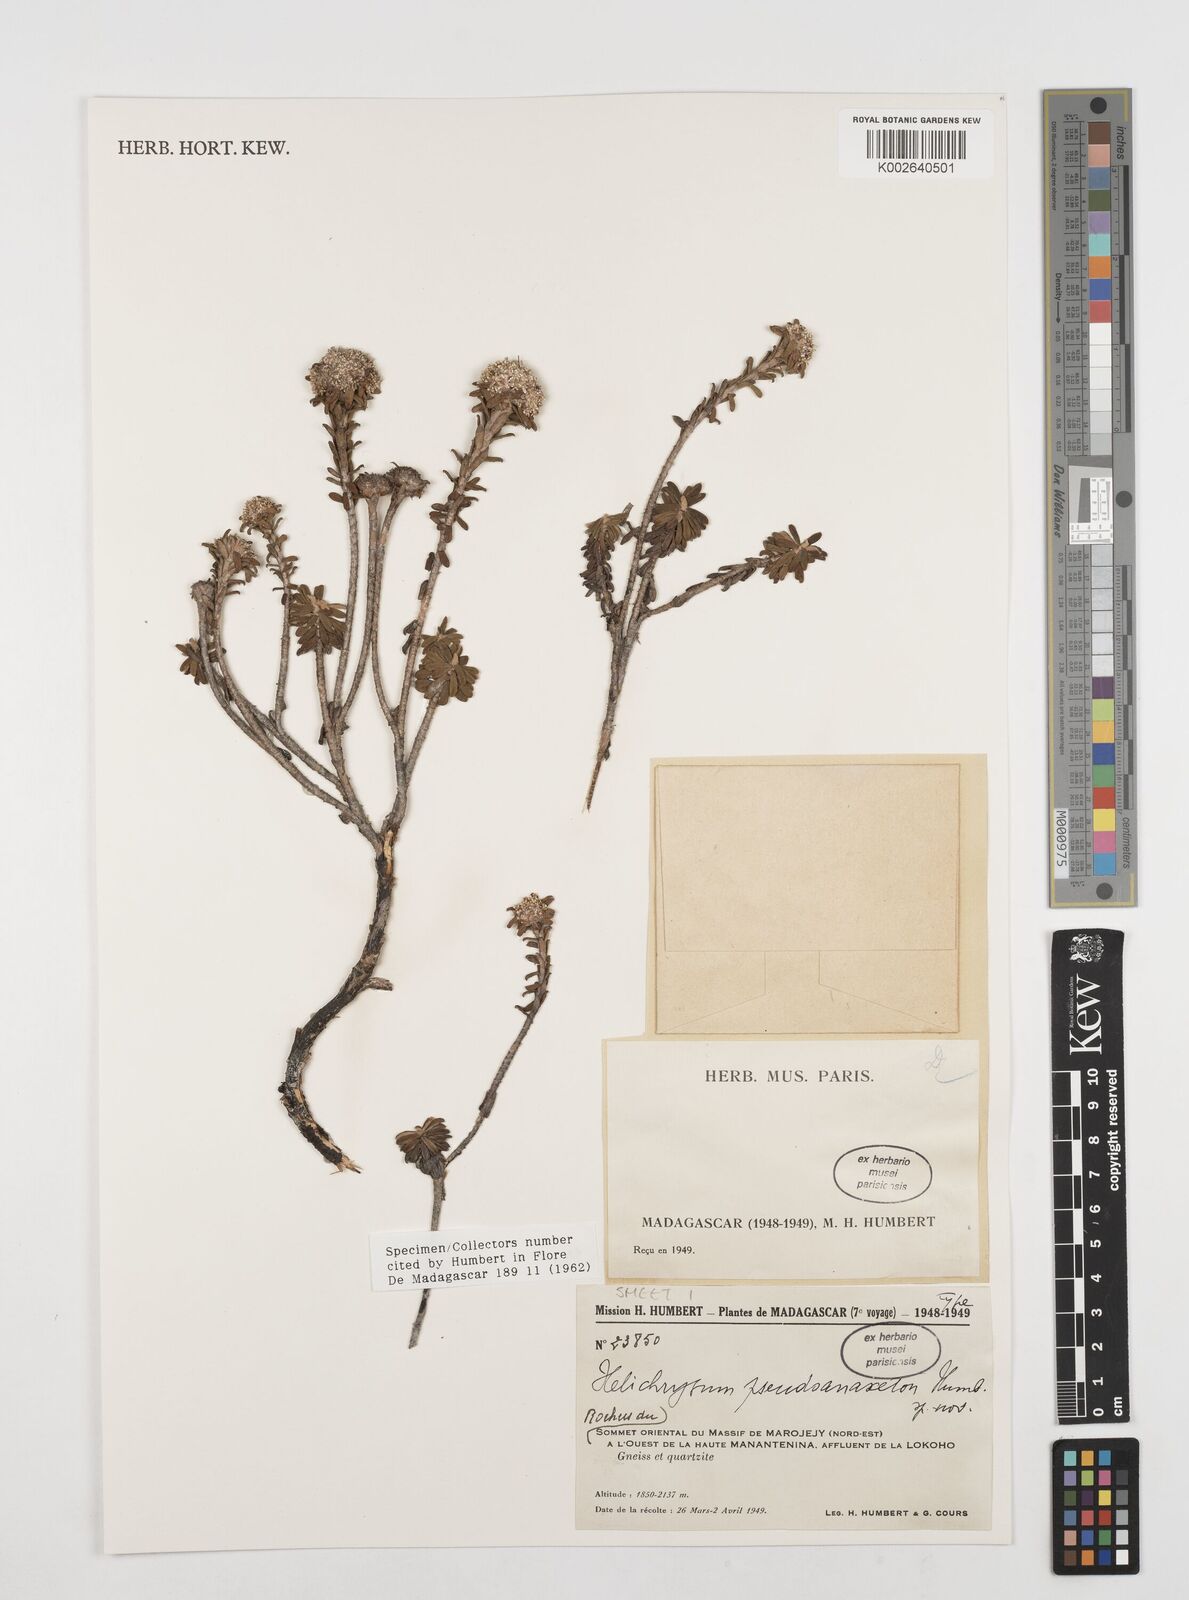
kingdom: Plantae
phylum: Tracheophyta
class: Magnoliopsida
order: Asterales
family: Asteraceae
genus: Helichrysum
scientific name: Helichrysum pseudoanaxeton
